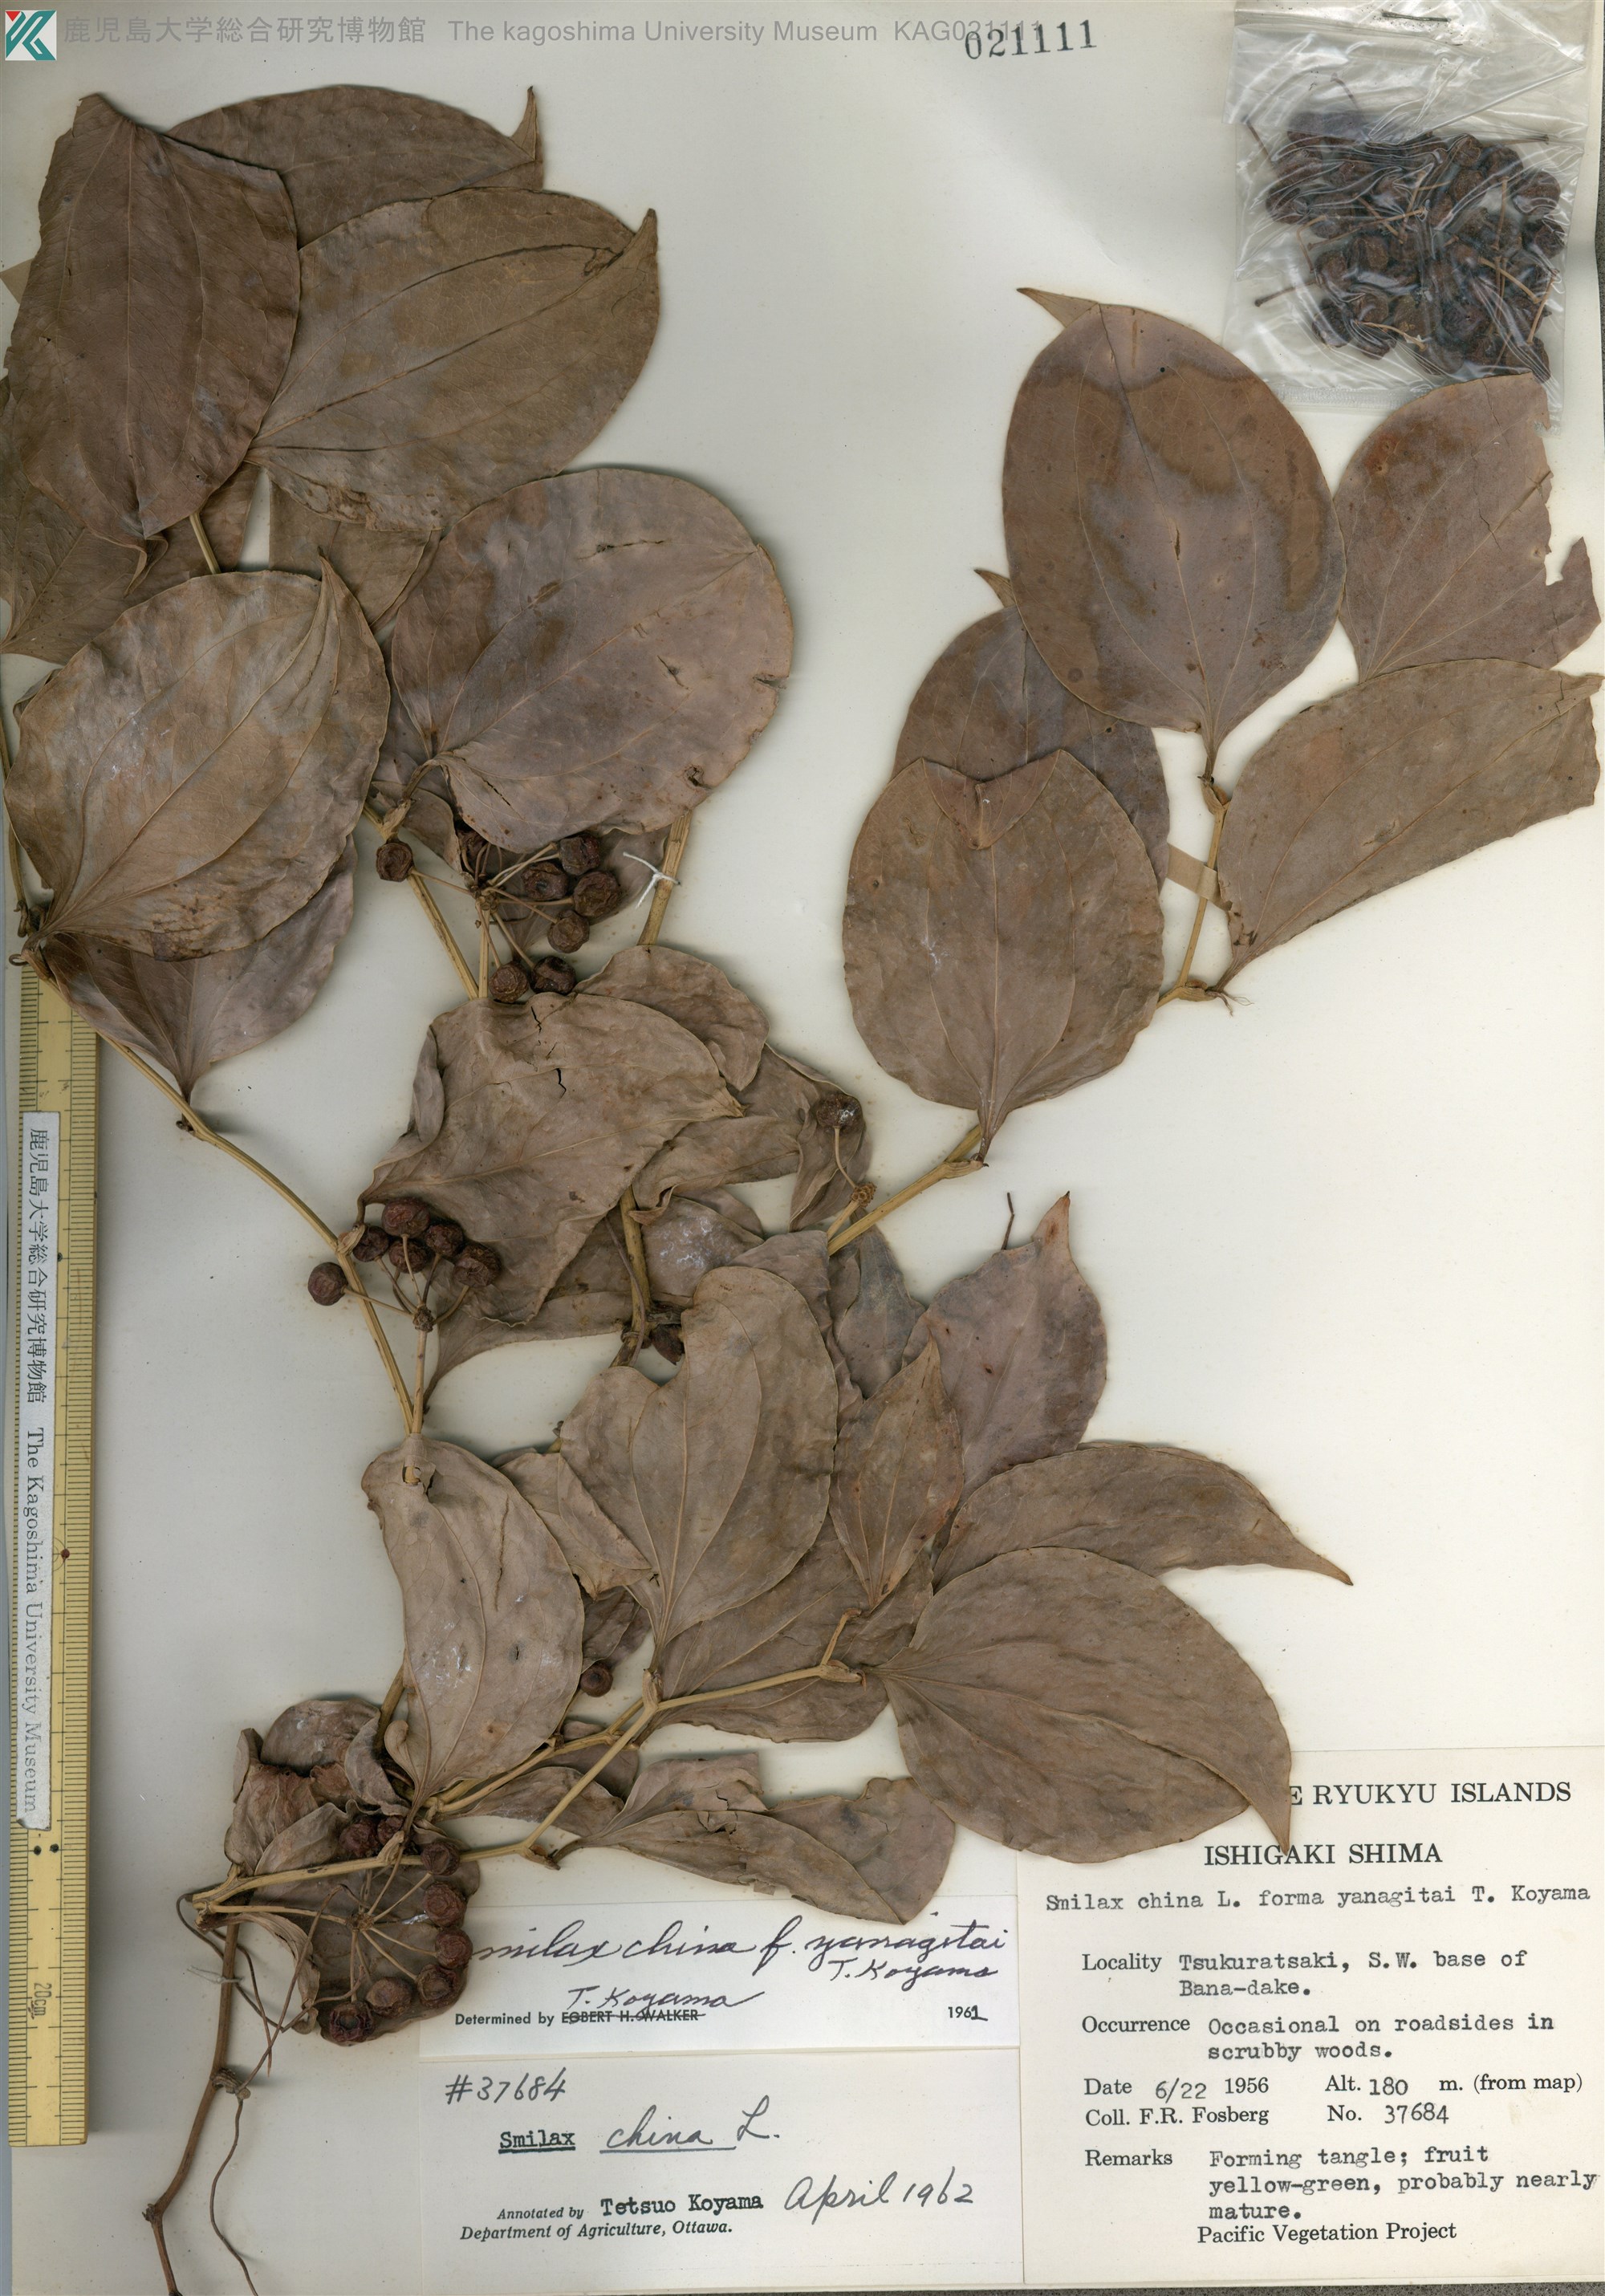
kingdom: Plantae
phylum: Tracheophyta
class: Liliopsida
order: Liliales
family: Smilacaceae
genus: Smilax
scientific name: Smilax china
